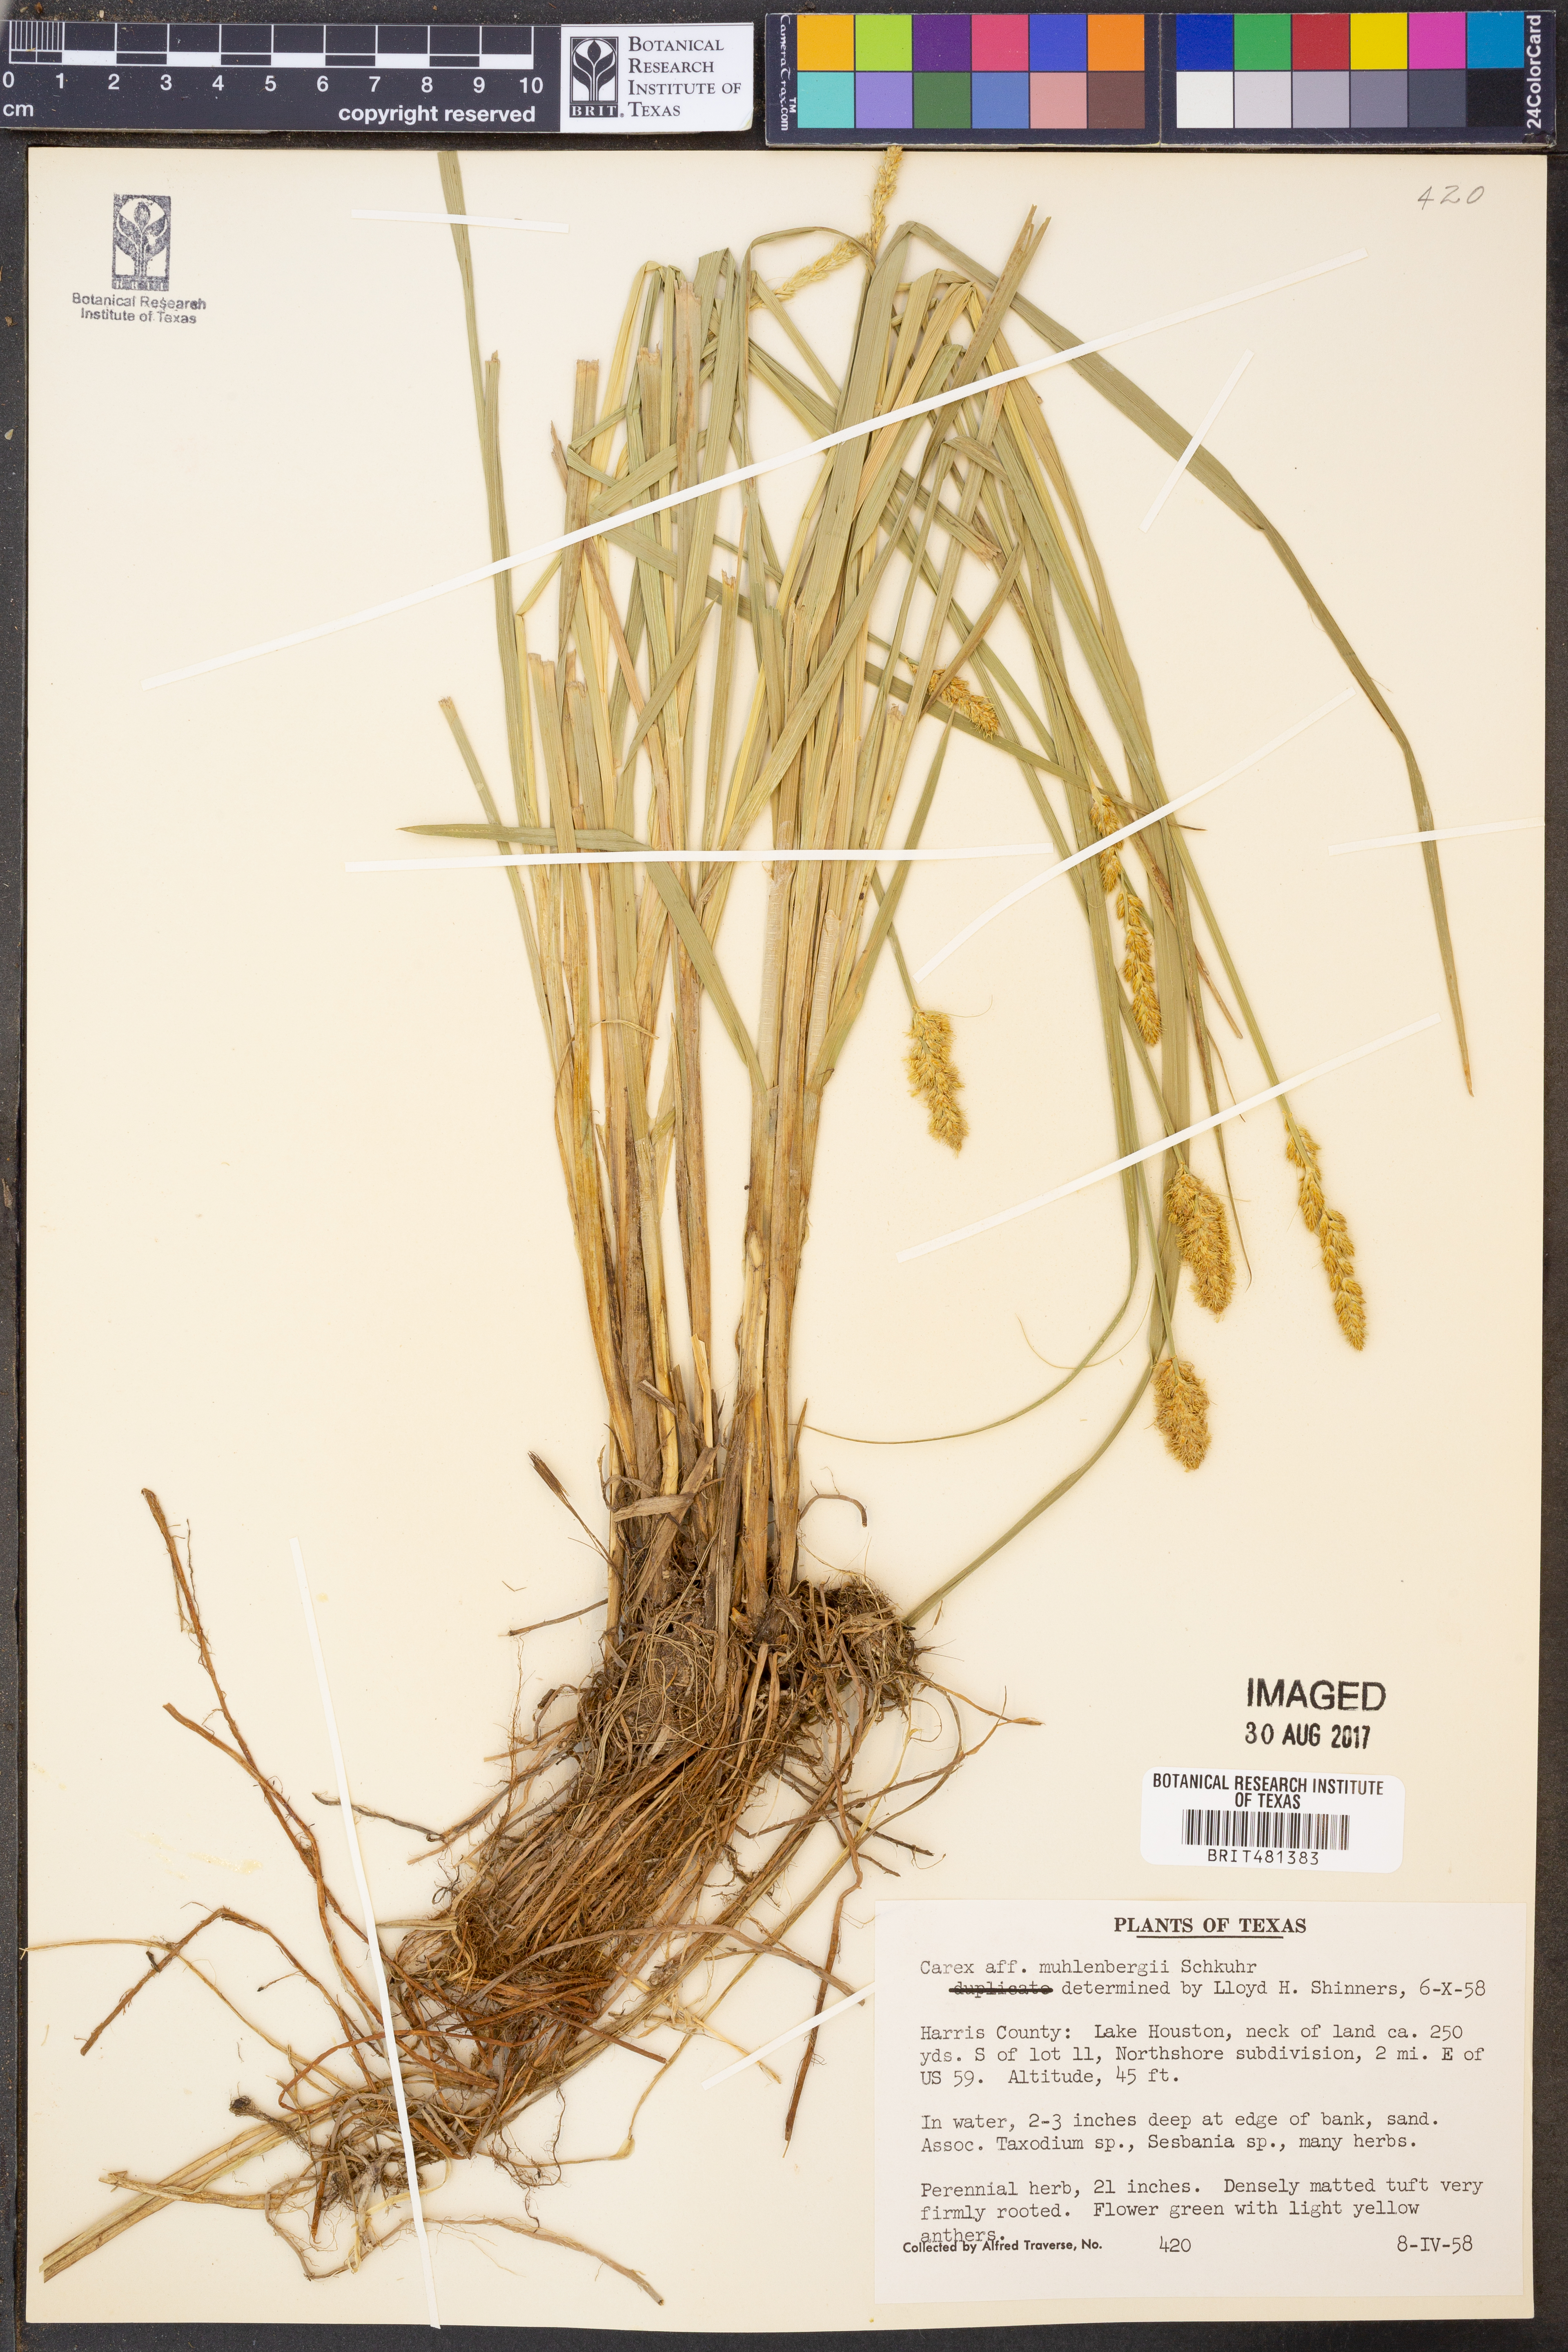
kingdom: Plantae
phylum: Tracheophyta
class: Liliopsida
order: Poales
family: Cyperaceae
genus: Carex
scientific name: Carex vulpinoidea
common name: American fox-sedge
